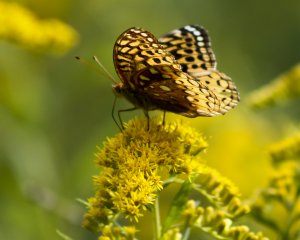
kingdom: Animalia
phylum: Arthropoda
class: Insecta
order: Lepidoptera
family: Nymphalidae
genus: Speyeria
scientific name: Speyeria cybele
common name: Great Spangled Fritillary
